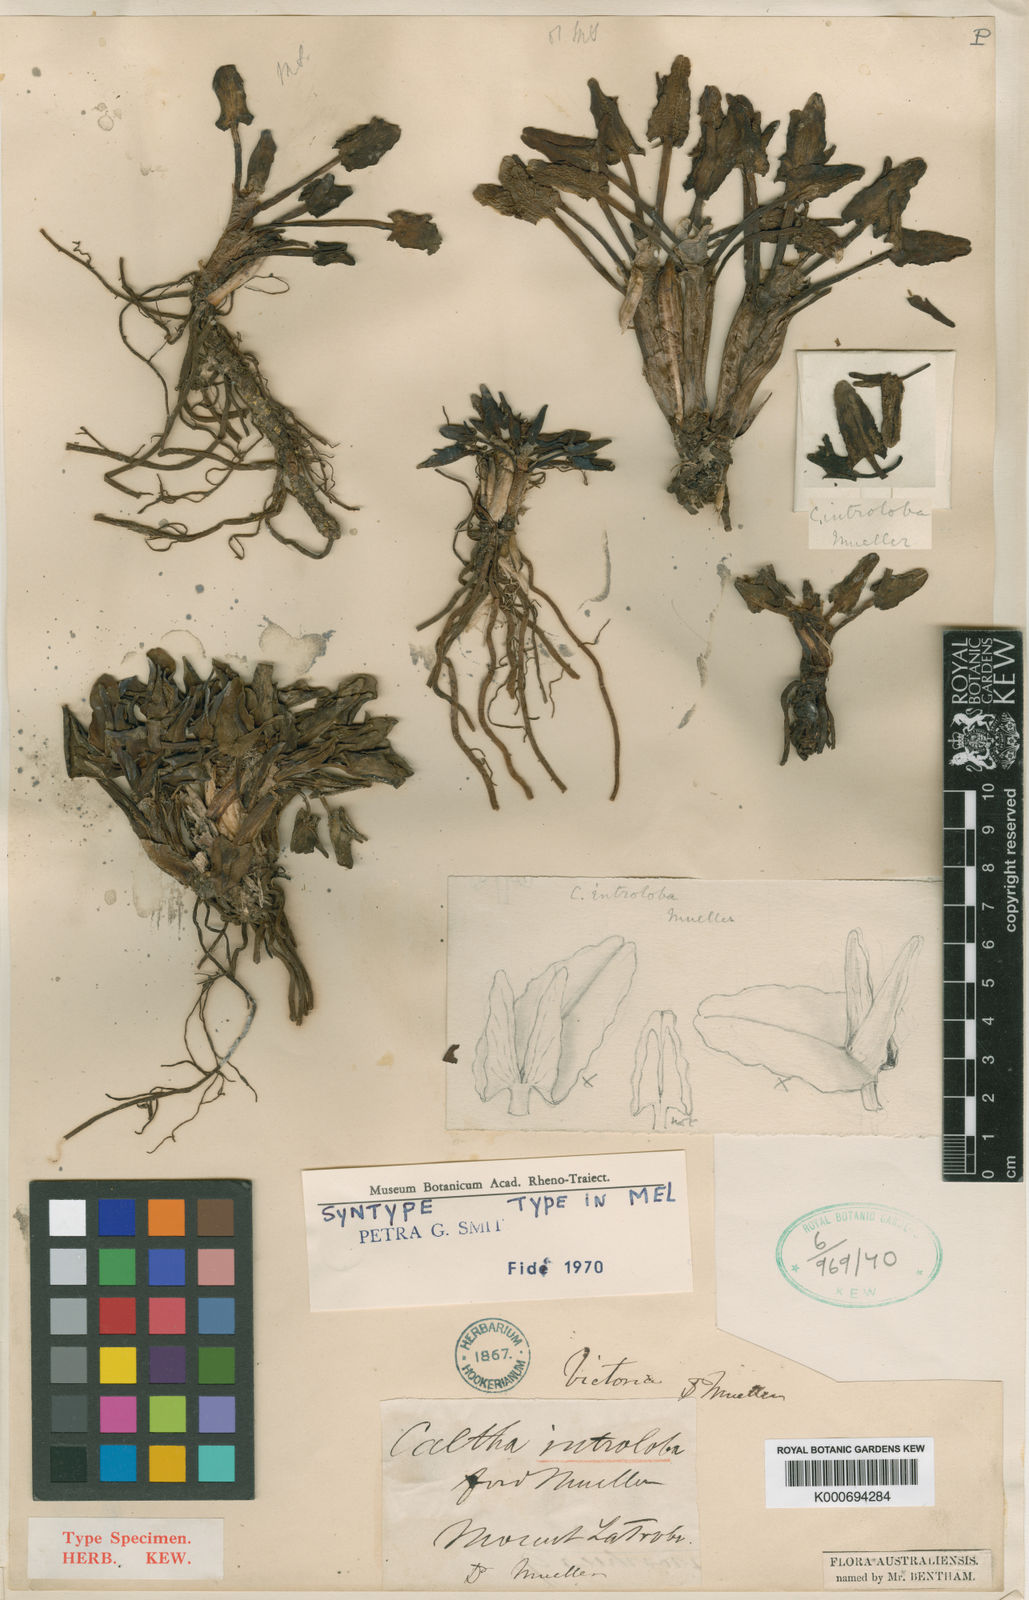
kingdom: Plantae
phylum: Tracheophyta
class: Magnoliopsida
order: Ranunculales
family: Ranunculaceae
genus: Caltha
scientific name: Caltha introloba
